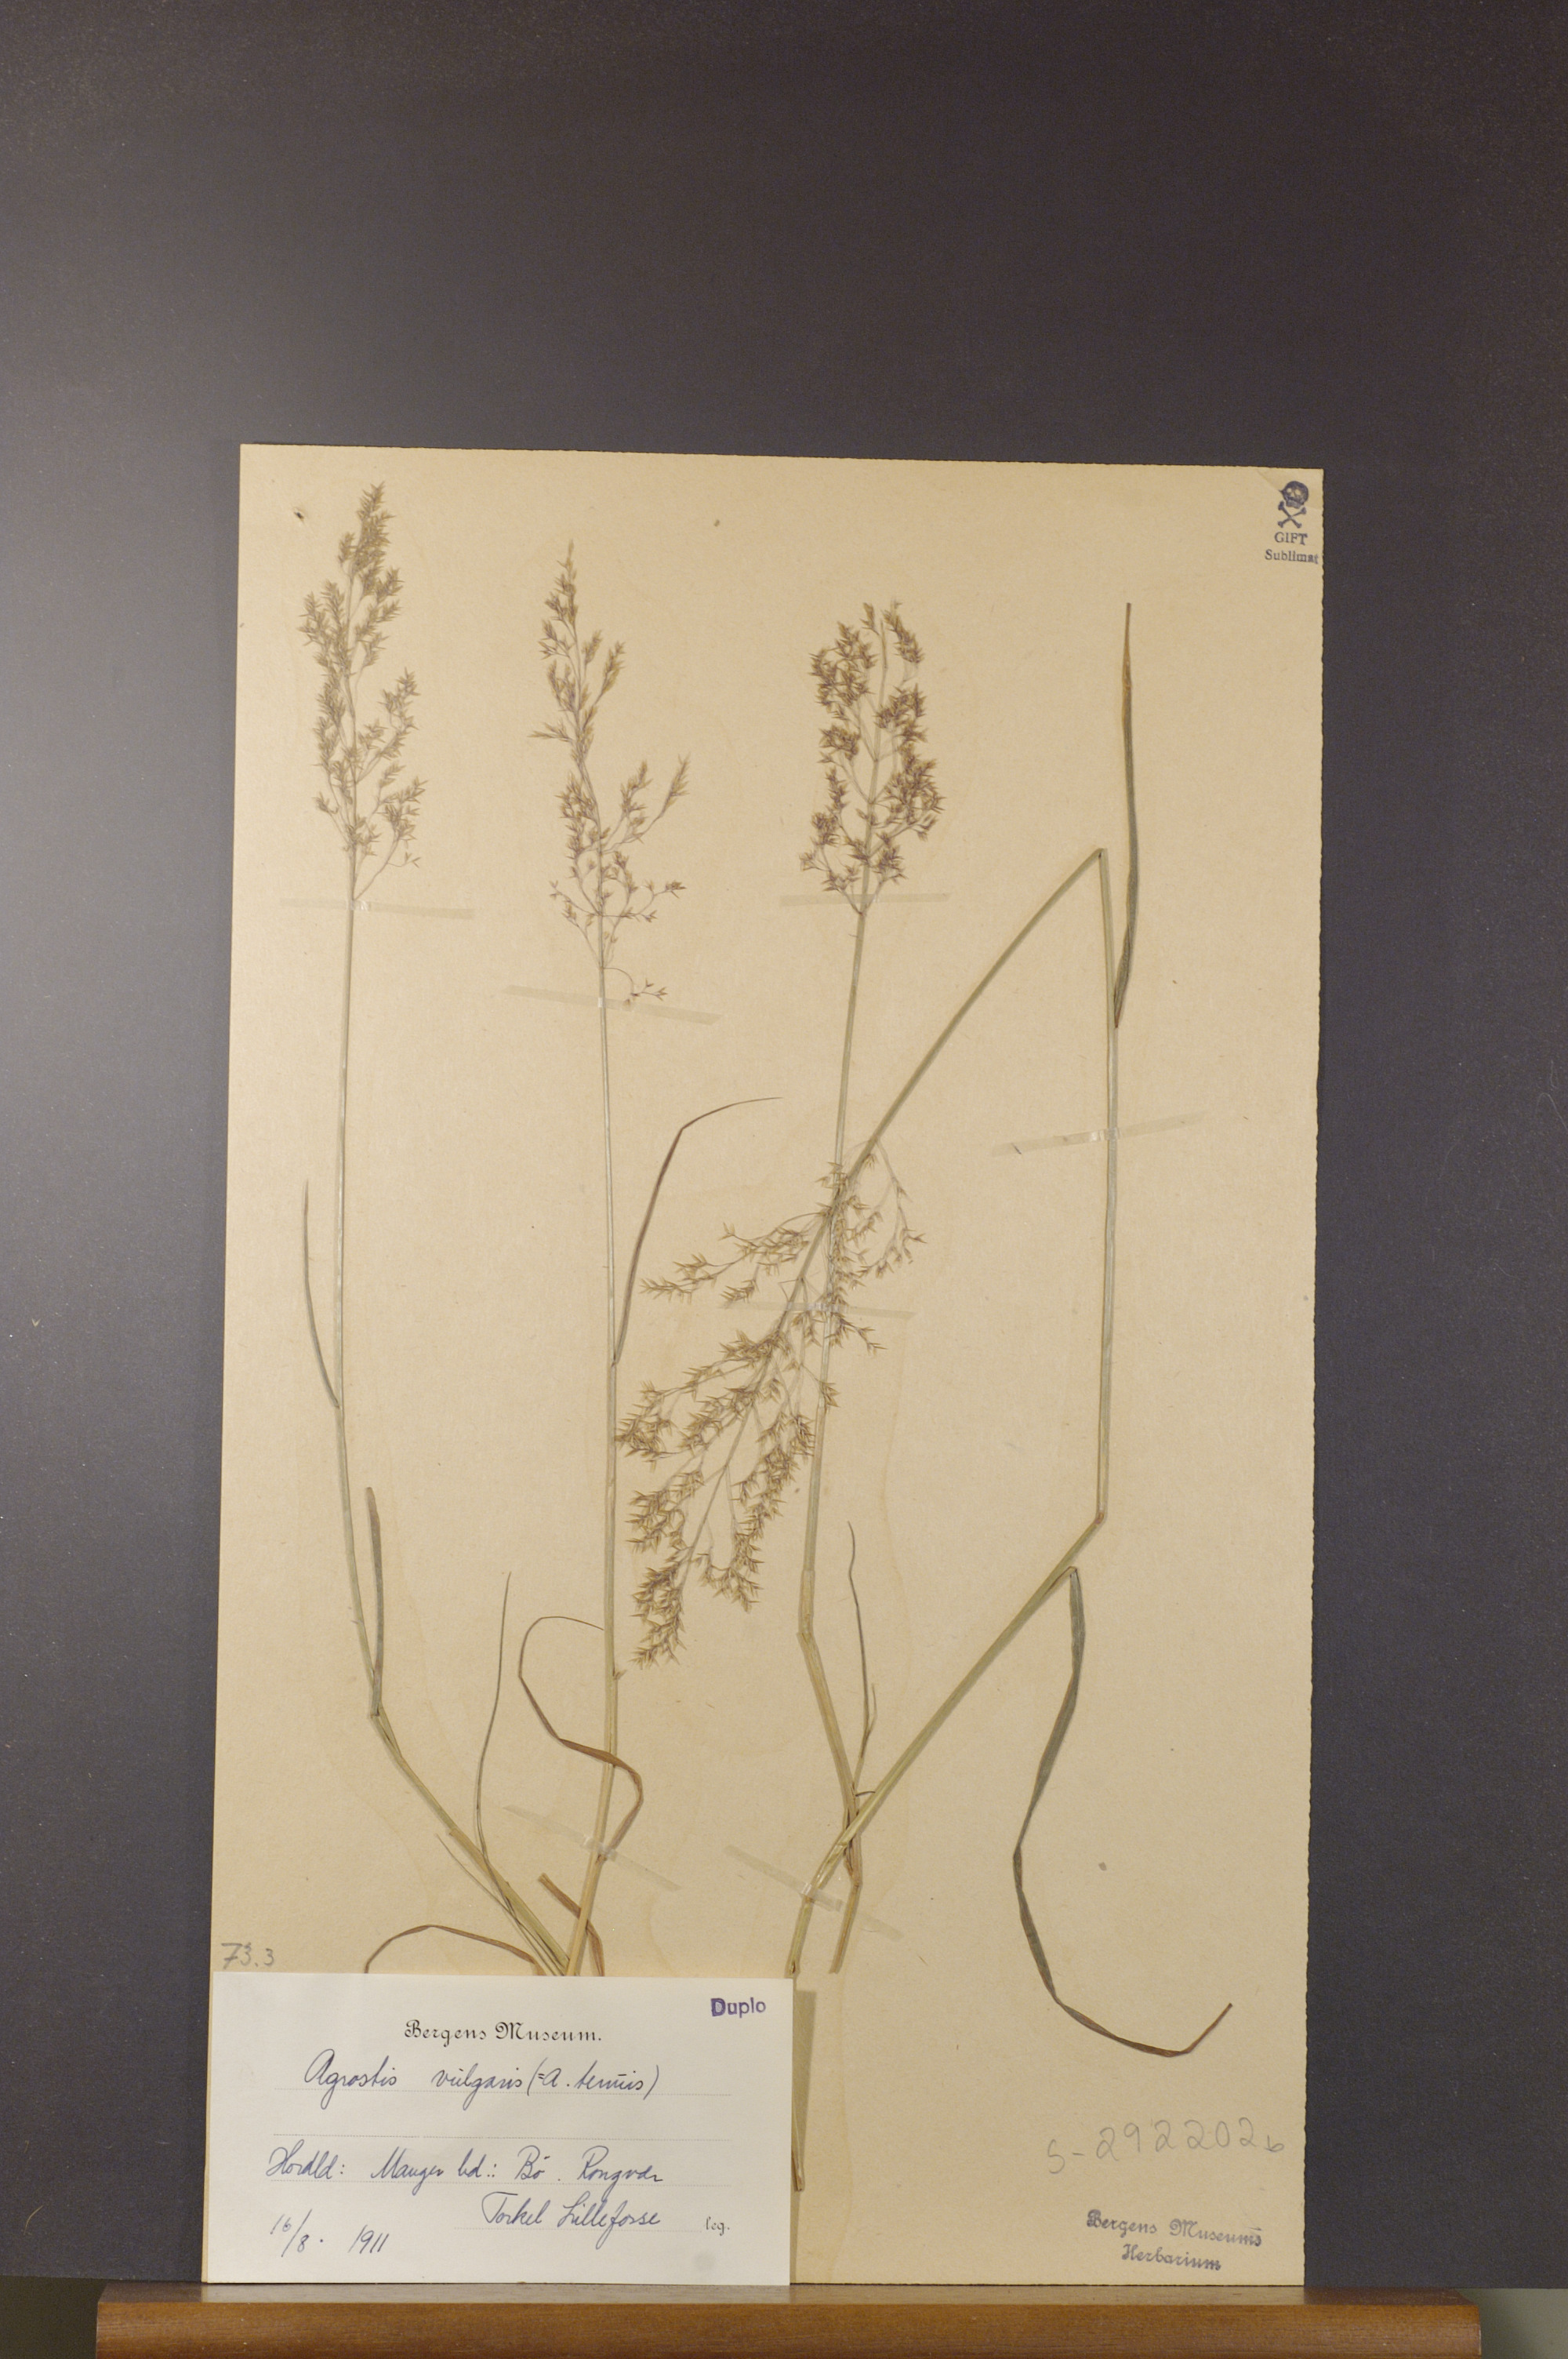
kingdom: Plantae
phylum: Tracheophyta
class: Liliopsida
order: Poales
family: Poaceae
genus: Agrostis
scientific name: Agrostis capillaris
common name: Colonial bentgrass
